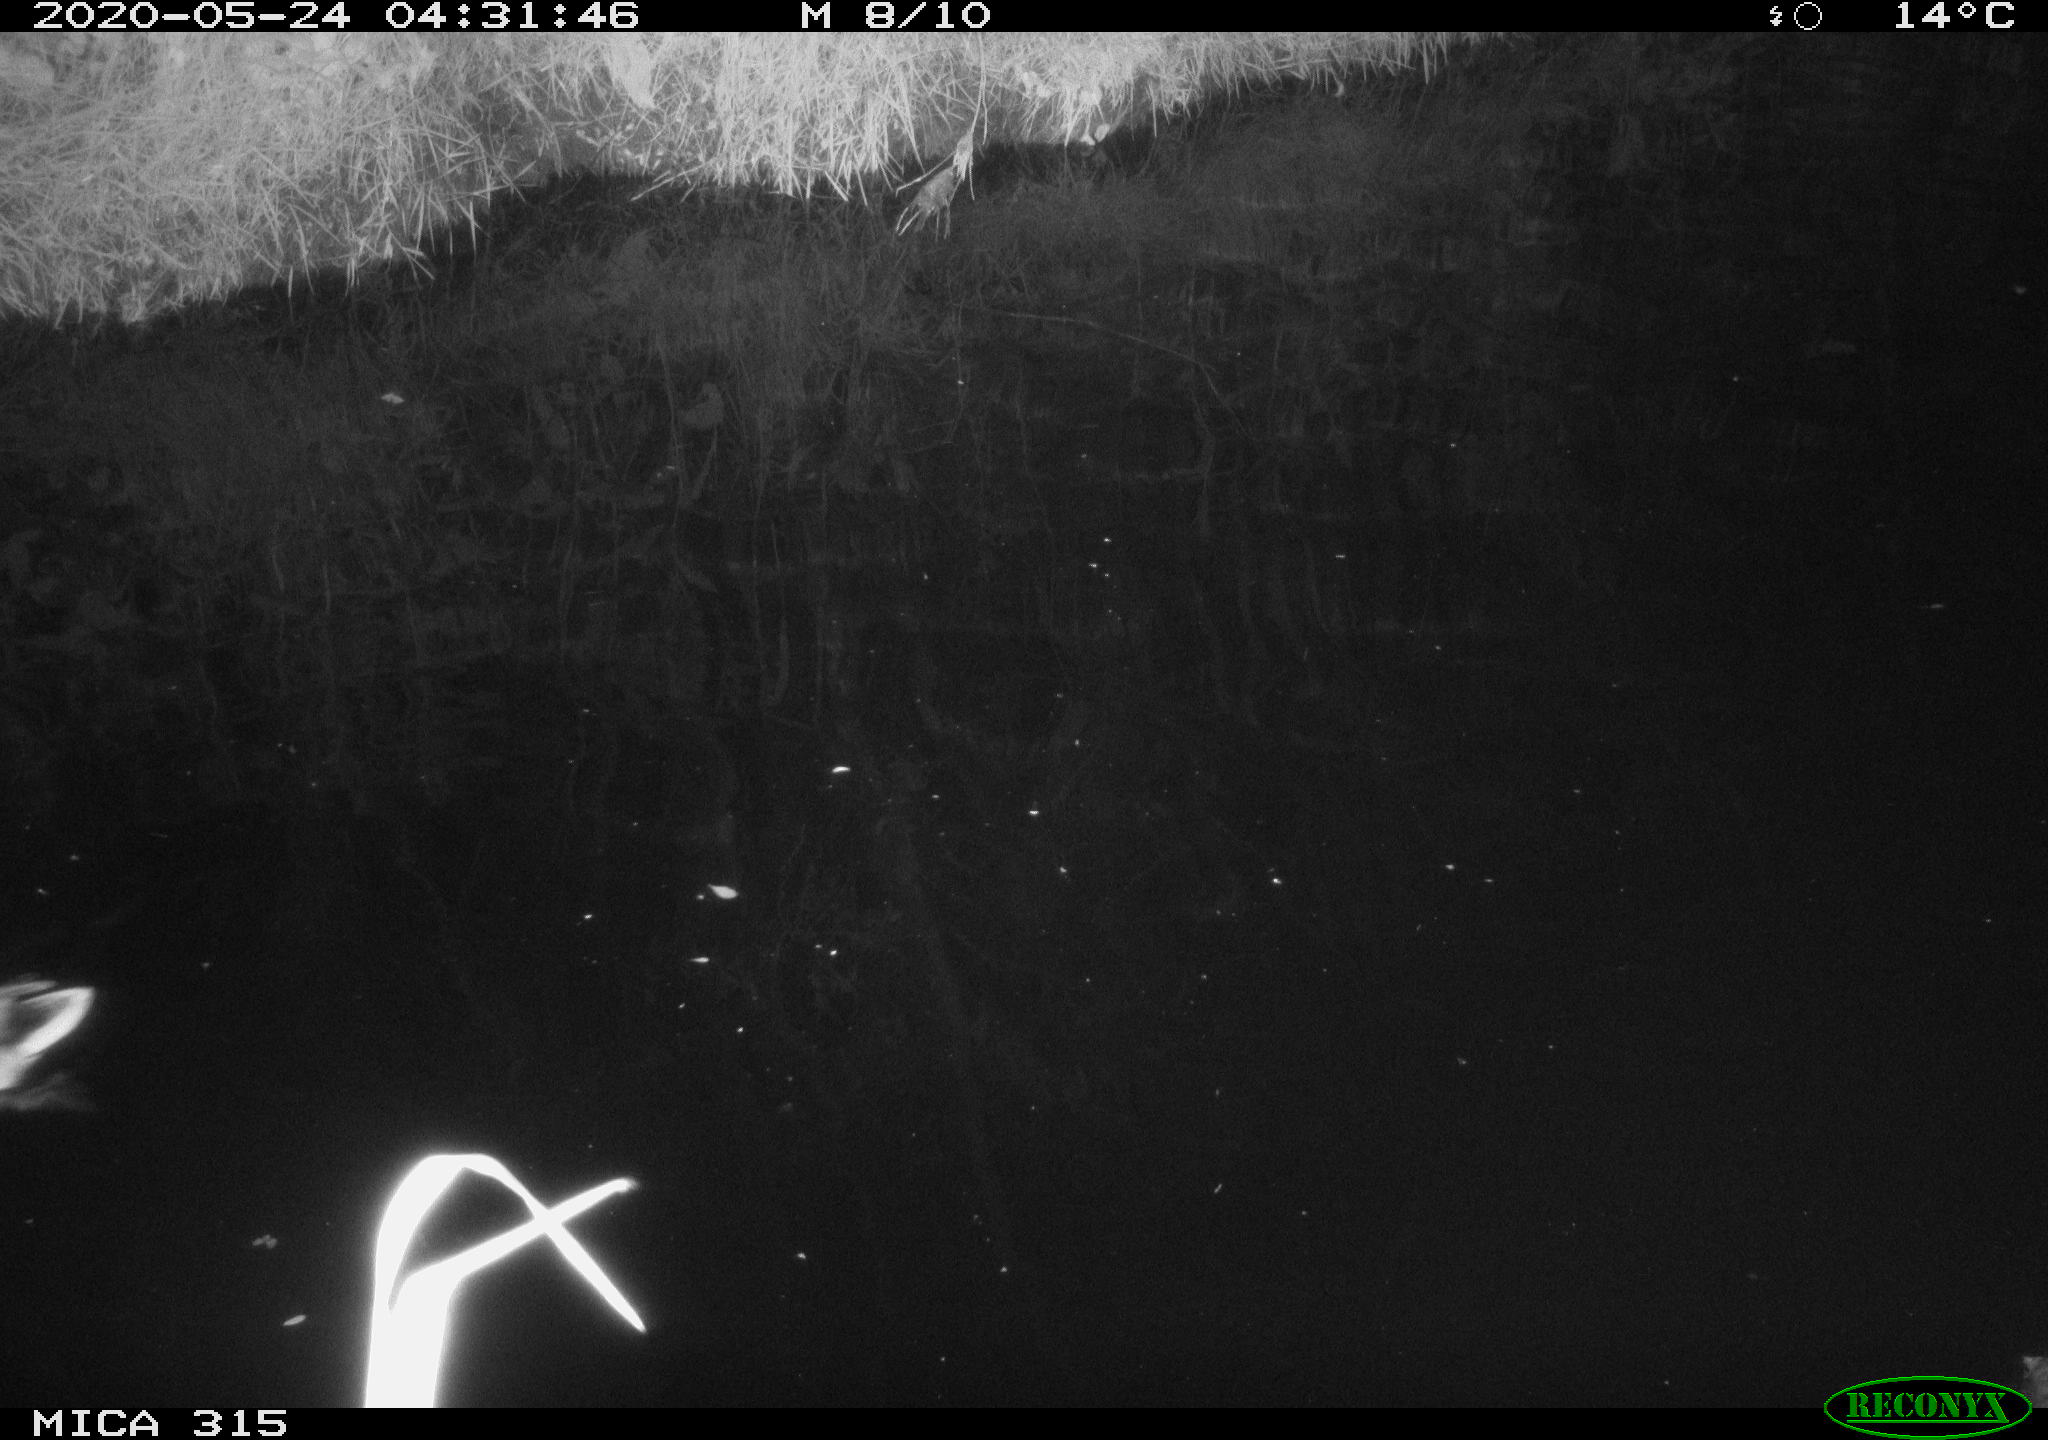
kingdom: Animalia
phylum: Chordata
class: Aves
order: Anseriformes
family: Anatidae
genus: Anas
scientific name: Anas platyrhynchos
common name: Mallard
